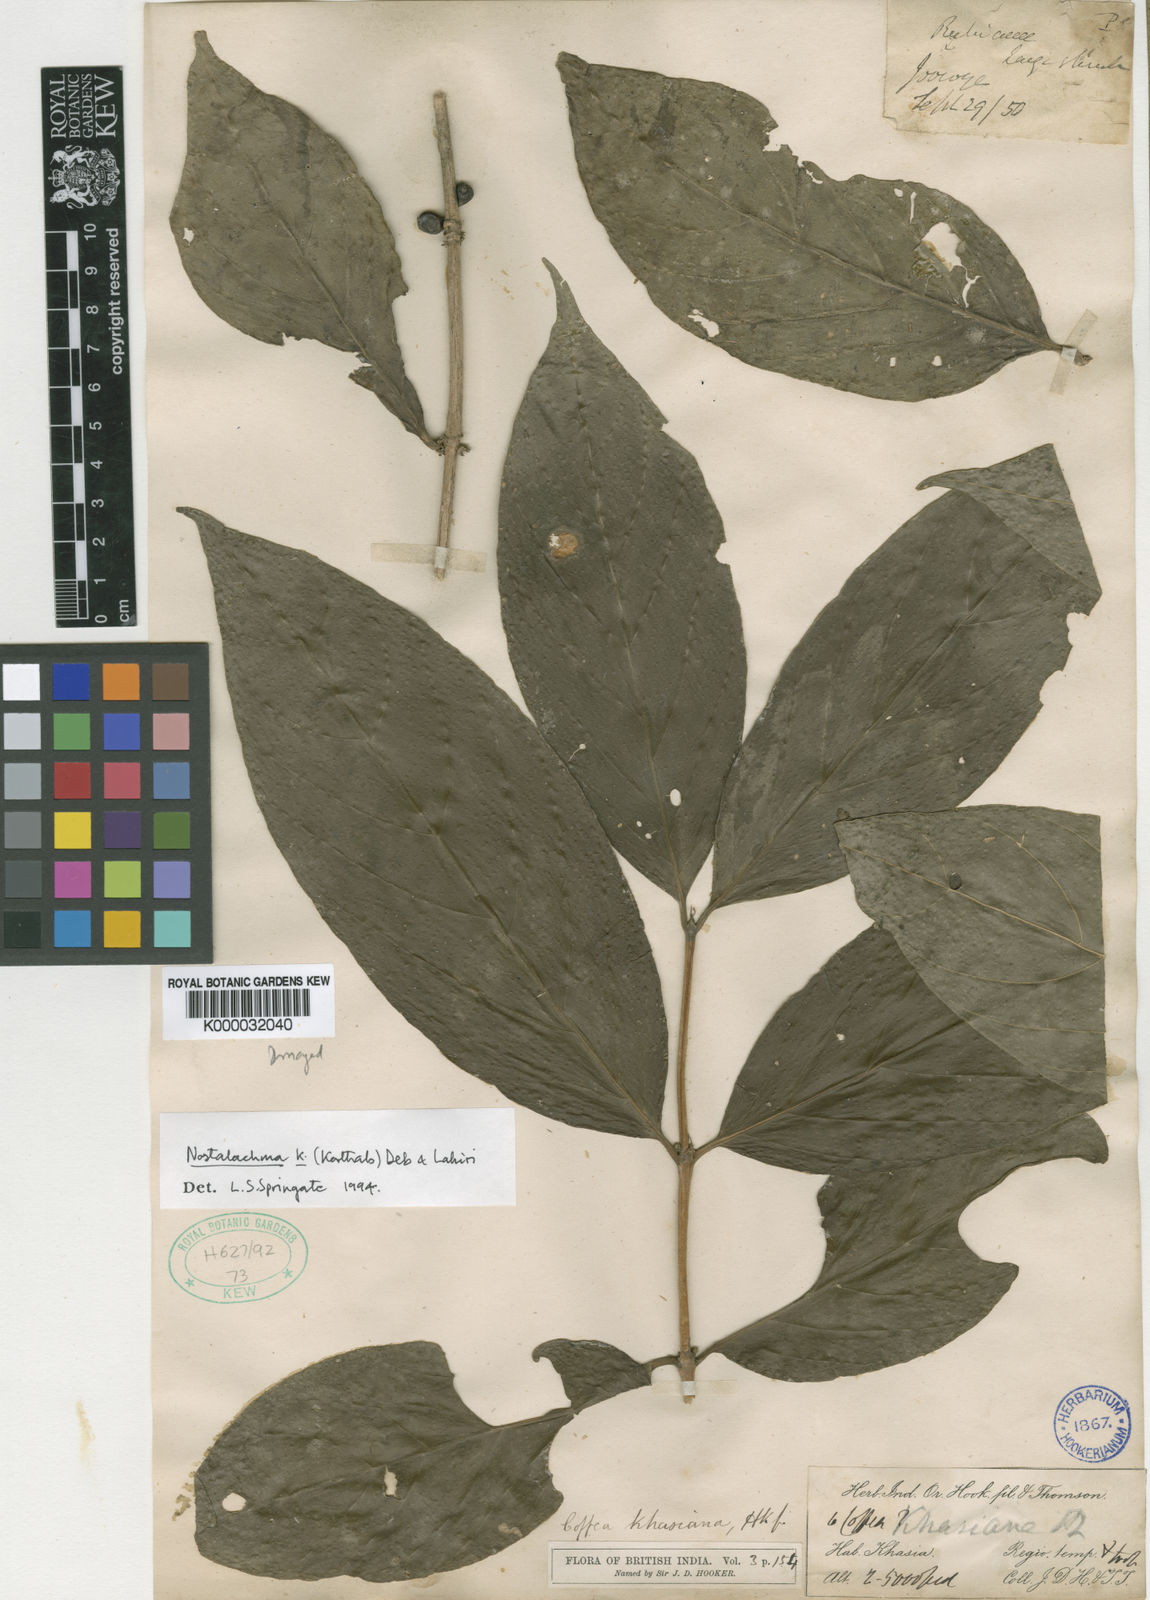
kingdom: Plantae
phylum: Tracheophyta
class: Magnoliopsida
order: Gentianales
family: Rubiaceae
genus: Nostolachma
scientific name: Nostolachma triflorum
